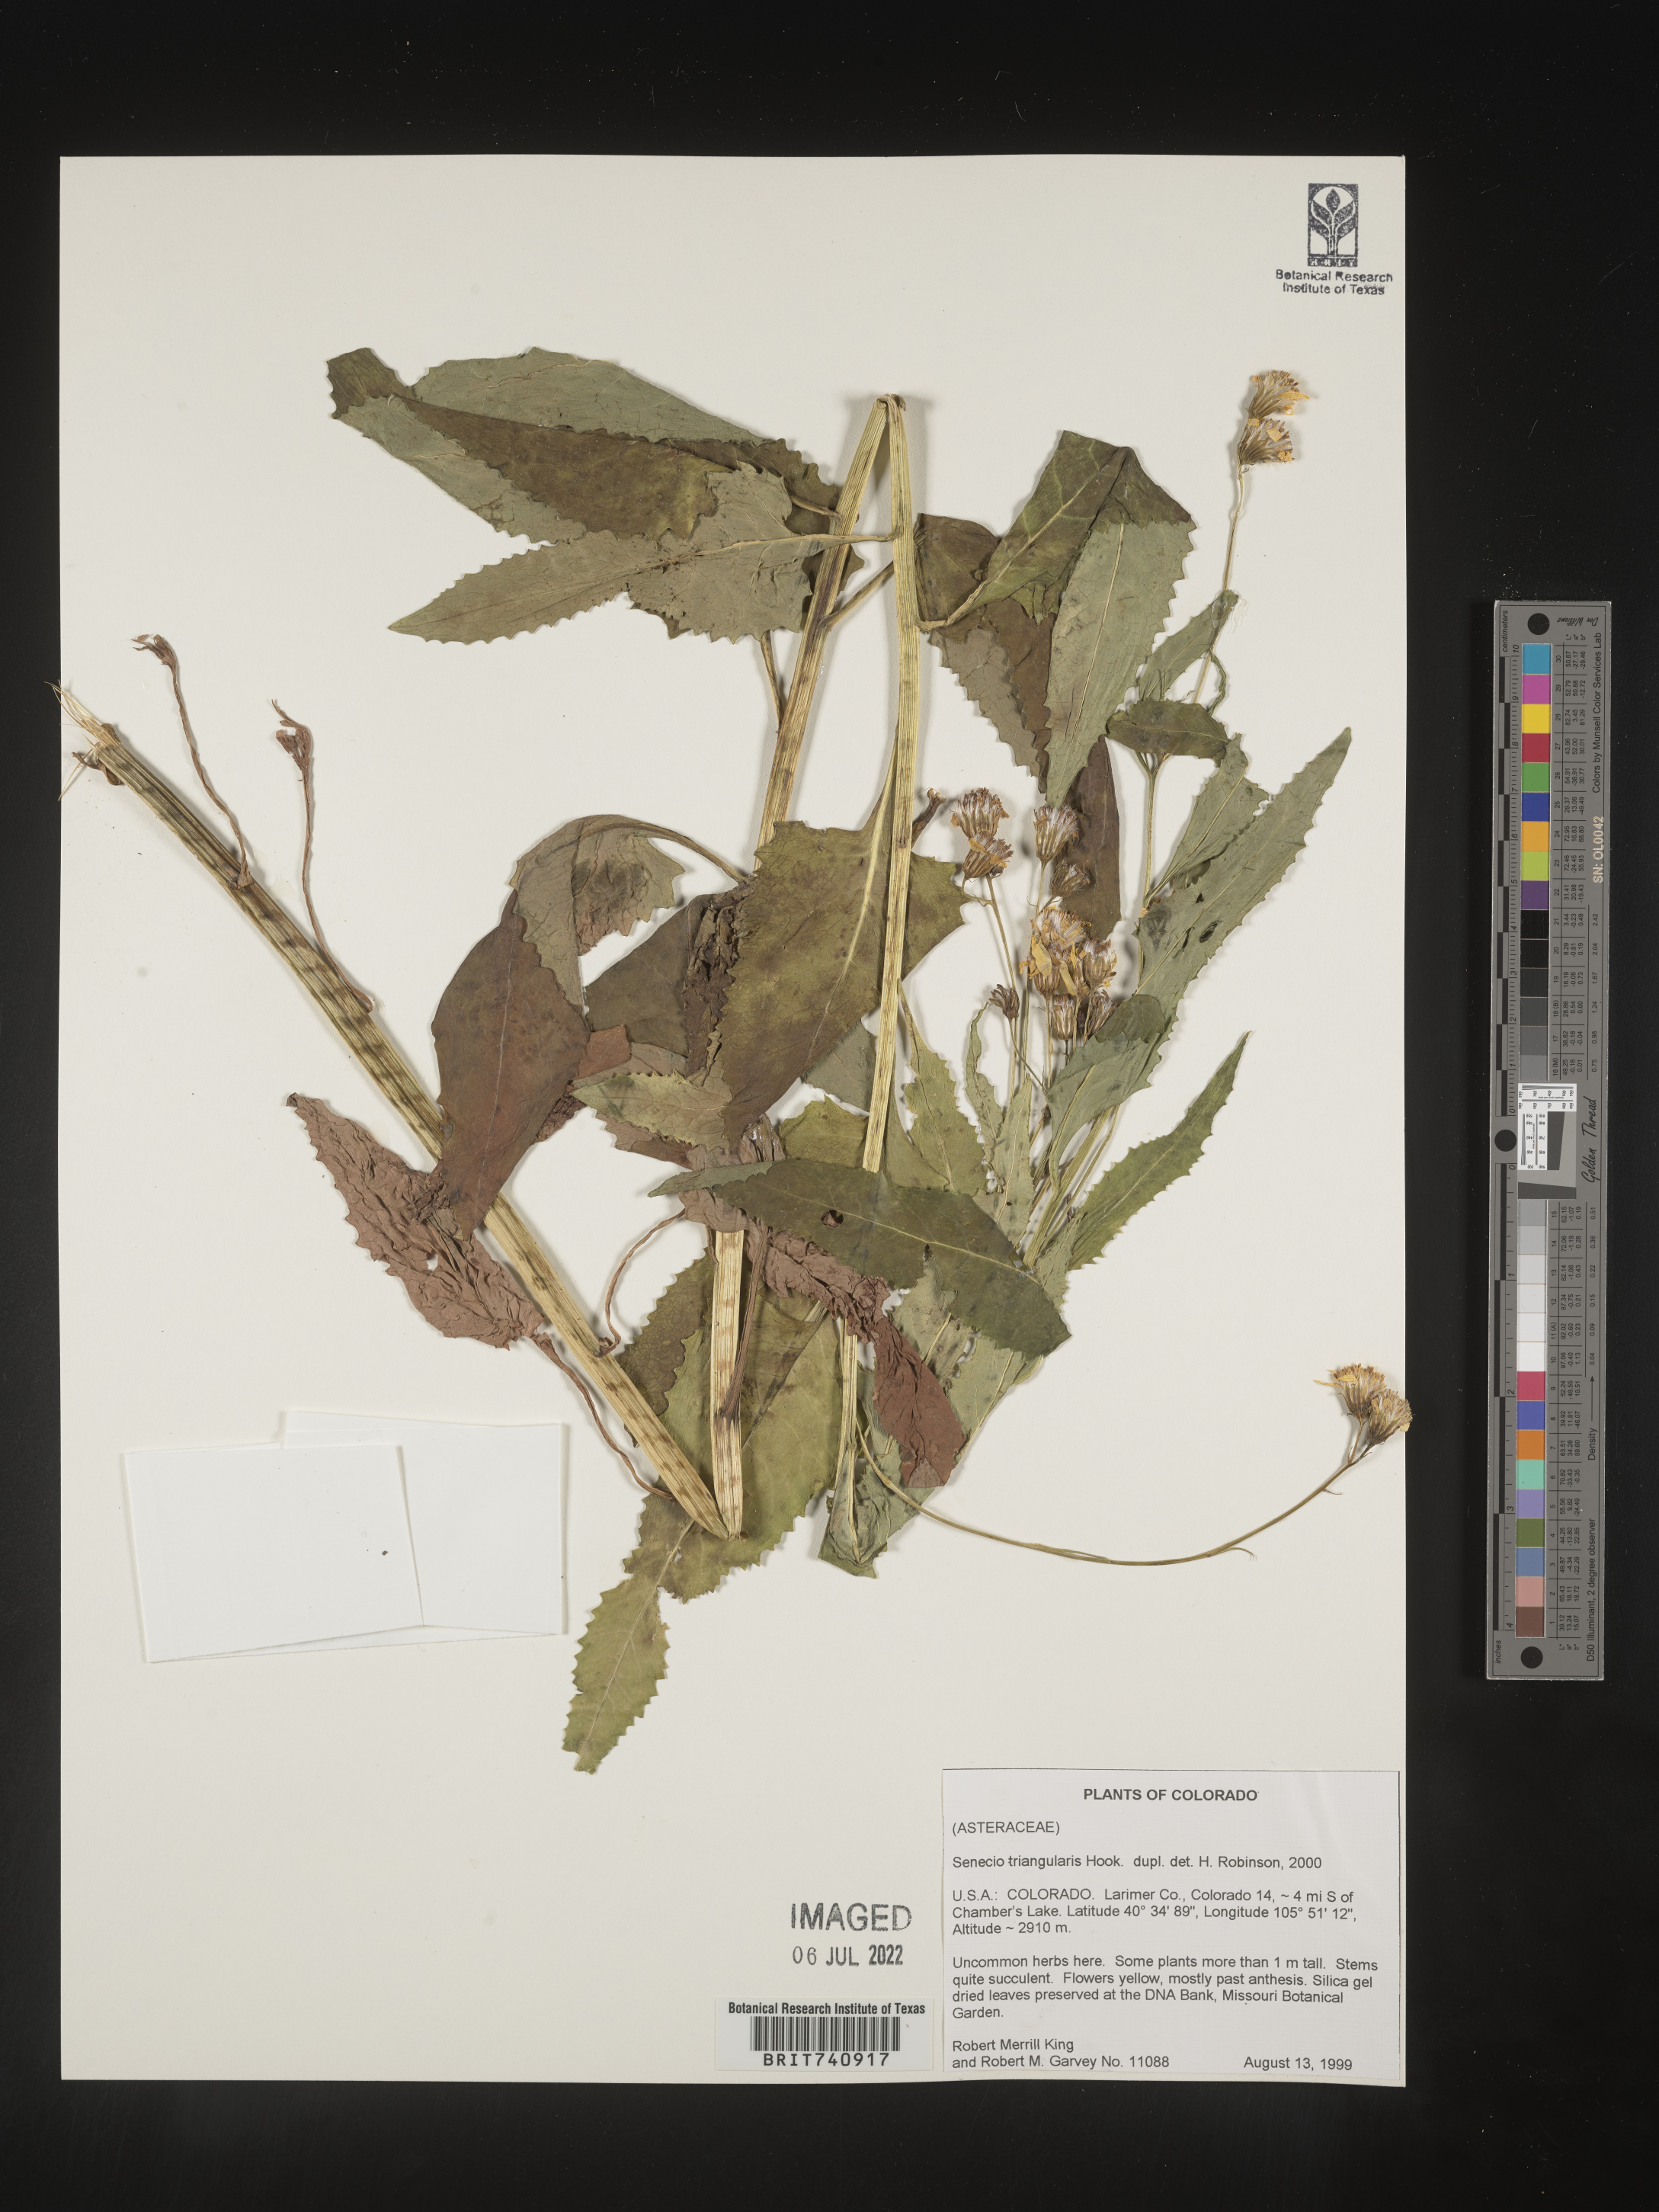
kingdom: Plantae
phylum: Tracheophyta
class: Magnoliopsida
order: Asterales
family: Asteraceae
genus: Senecio
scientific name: Senecio triangularis
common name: Arrowleaf butterweed
